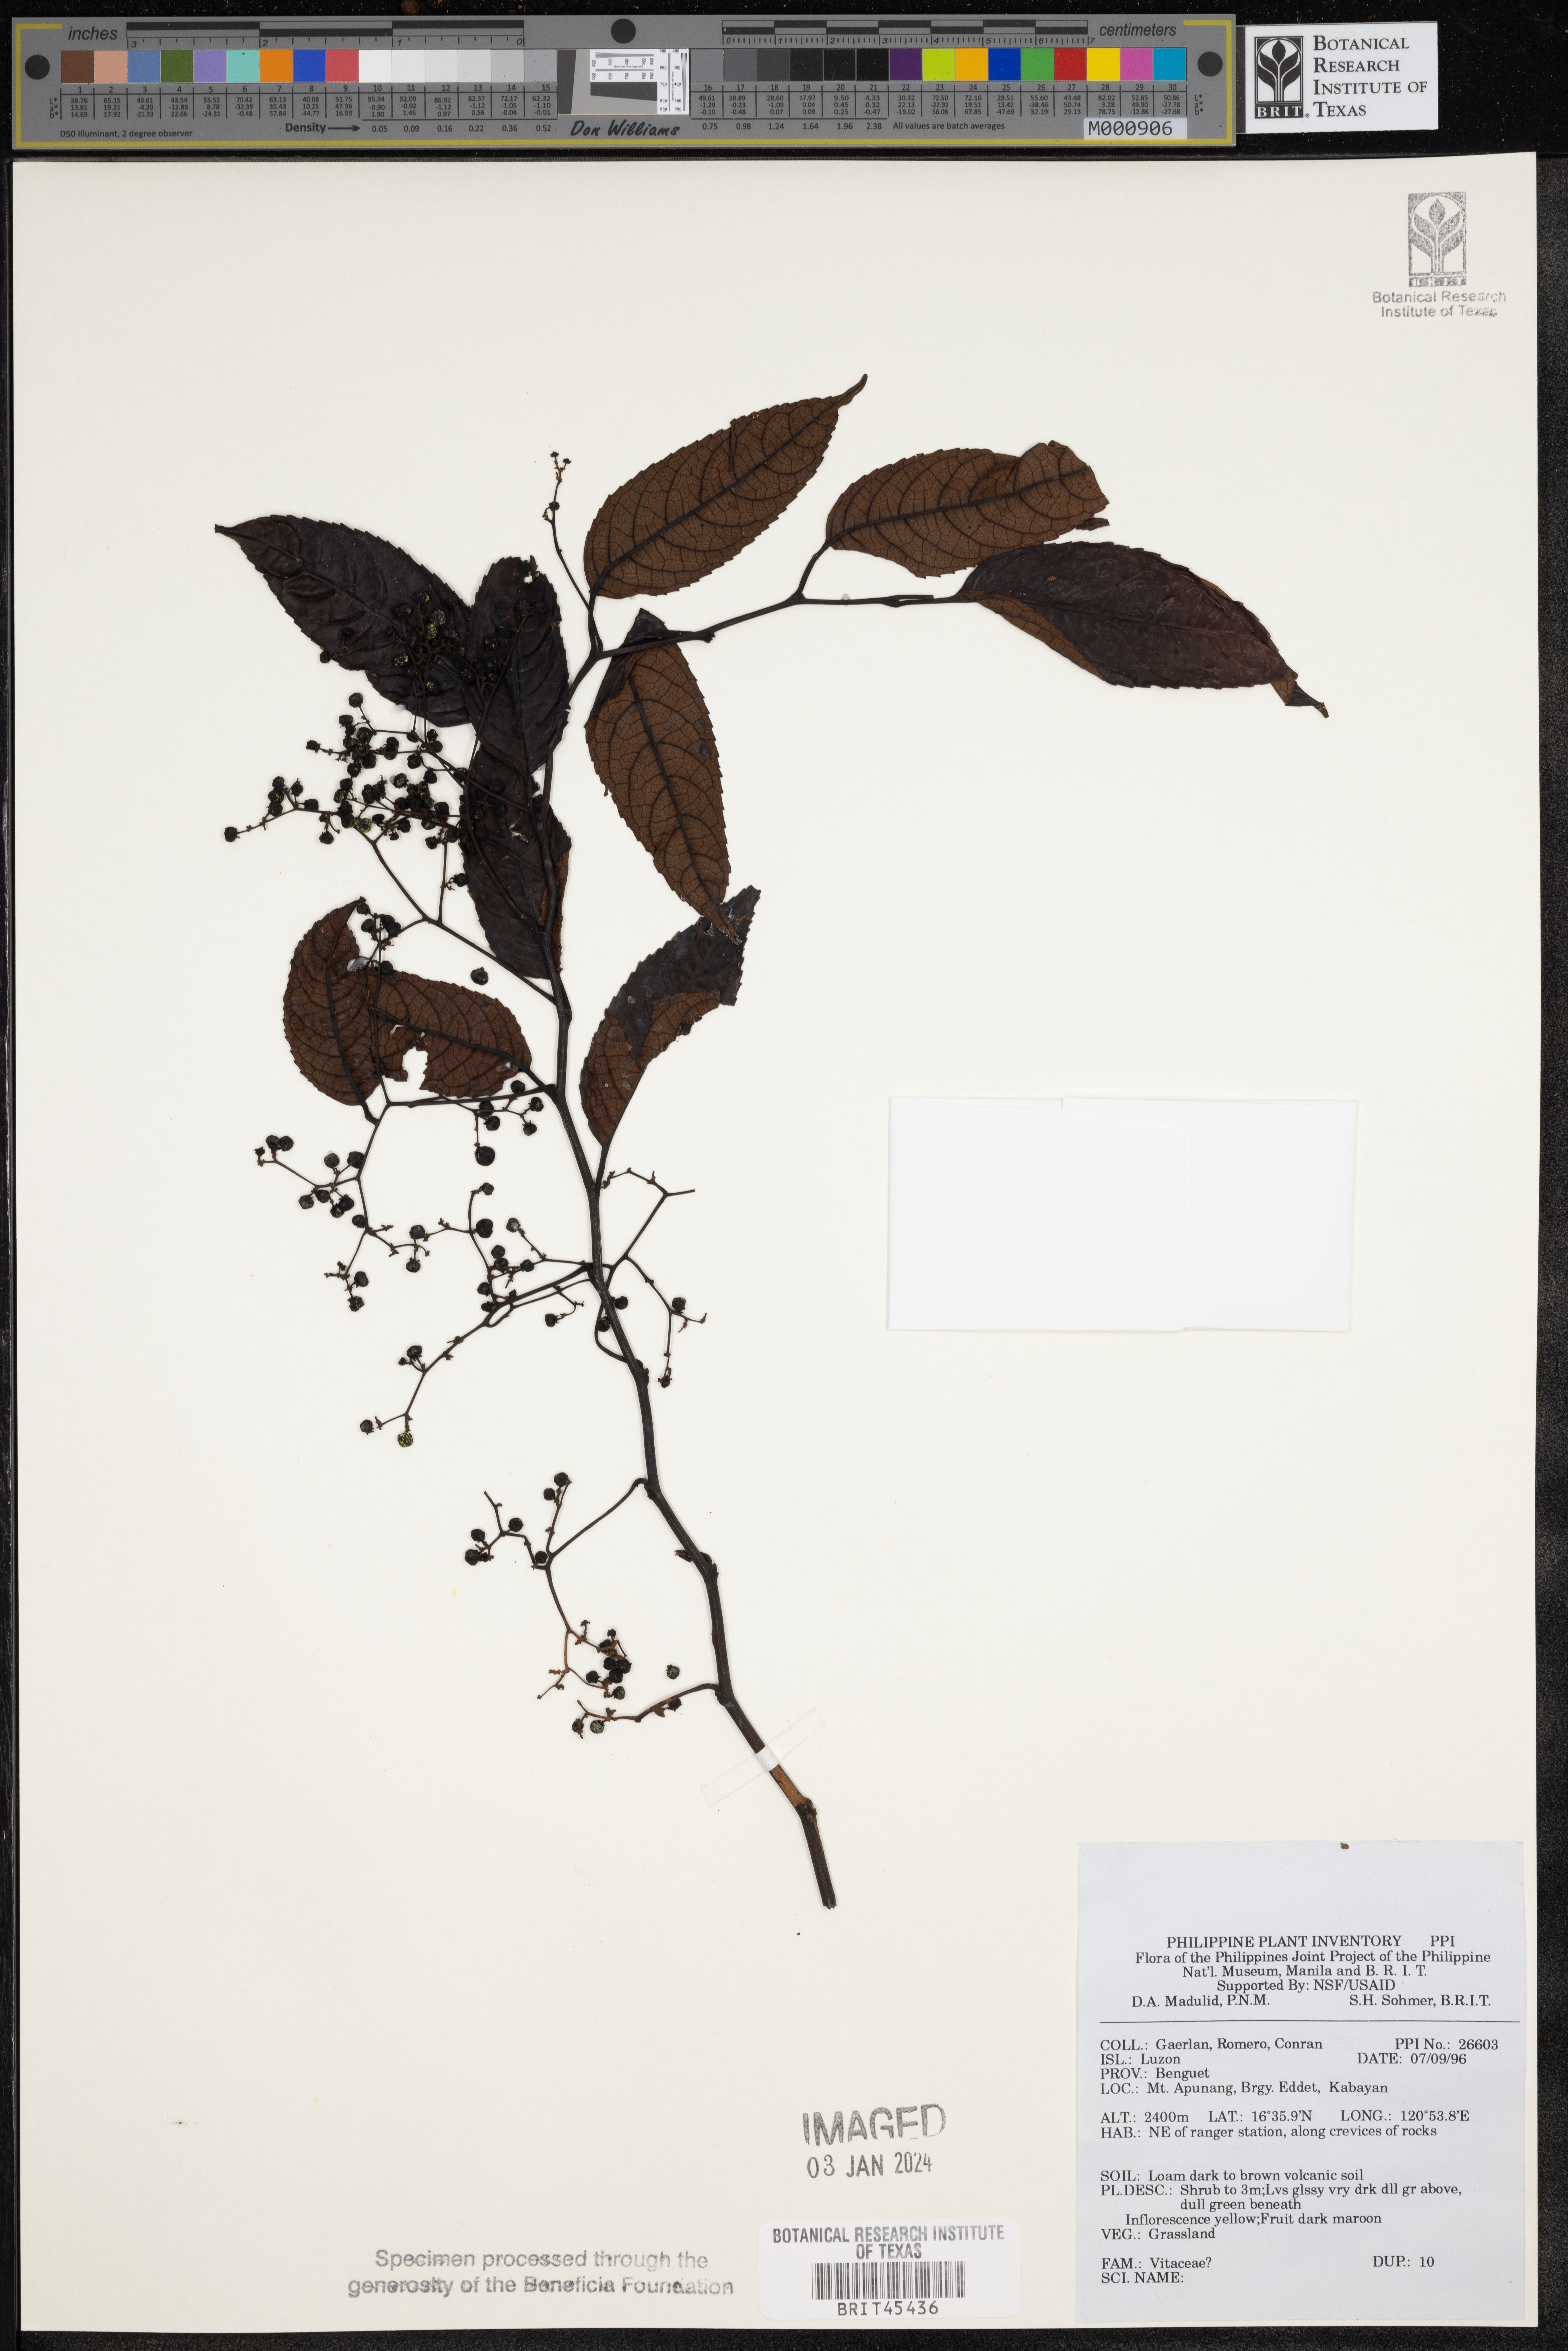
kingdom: Plantae
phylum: Tracheophyta
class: Magnoliopsida
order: Vitales
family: Vitaceae
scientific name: Vitaceae
